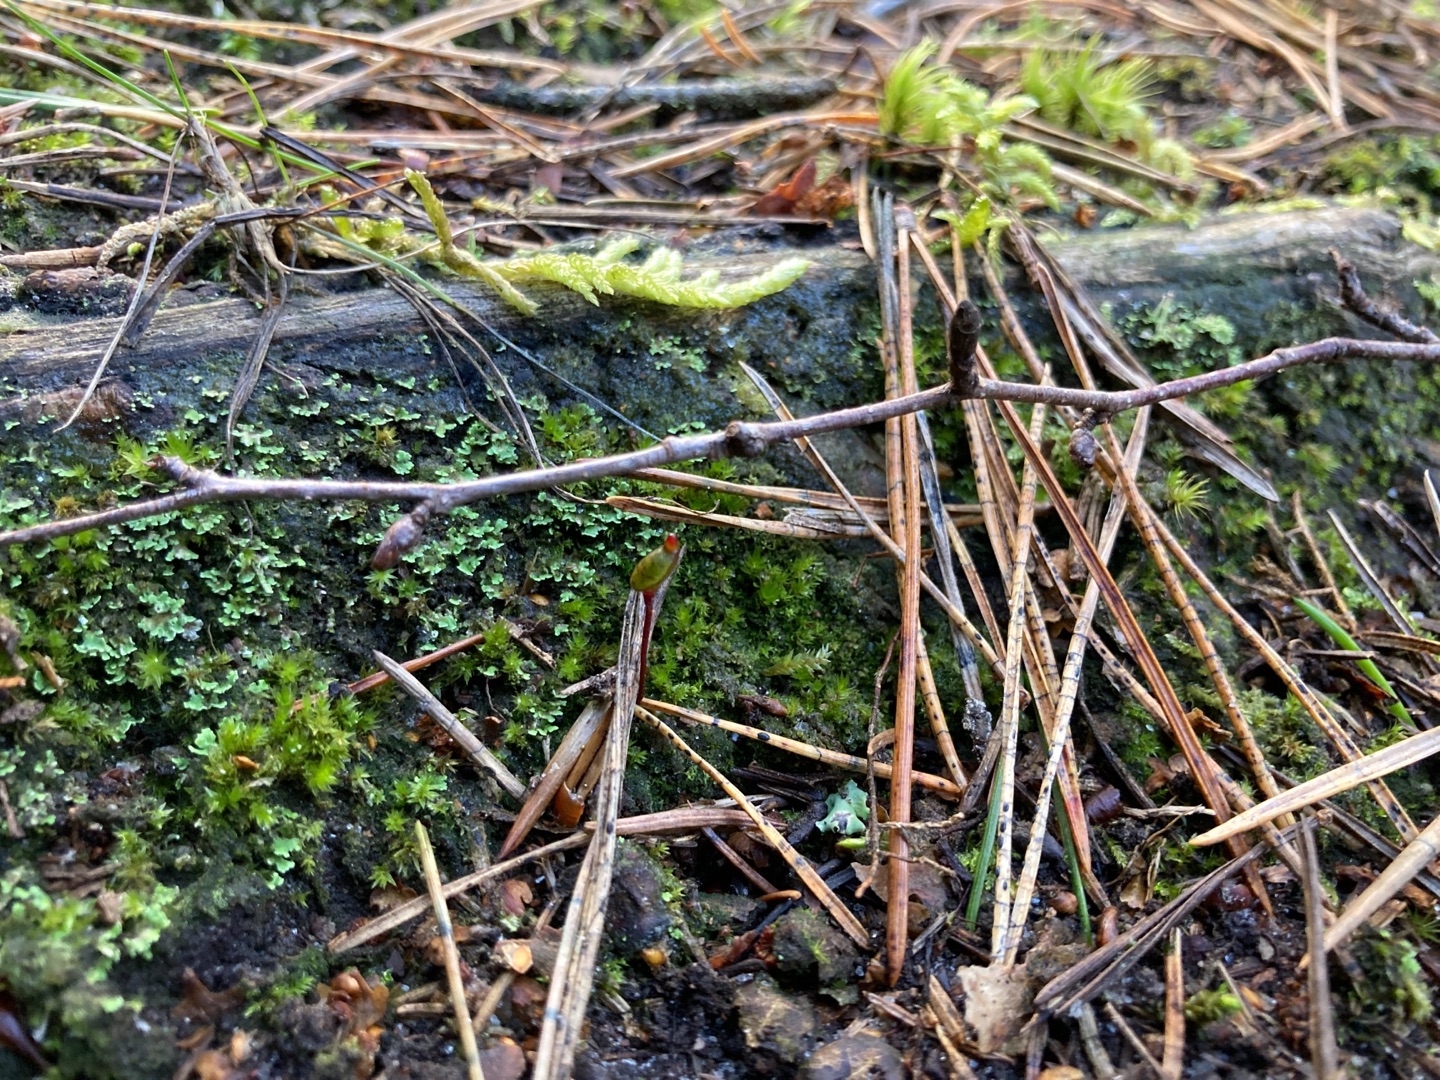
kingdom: Plantae
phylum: Bryophyta
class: Bryopsida
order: Buxbaumiales
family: Buxbaumiaceae
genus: Buxbaumia
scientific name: Buxbaumia aphylla
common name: Rundkapslet buxbaumia
